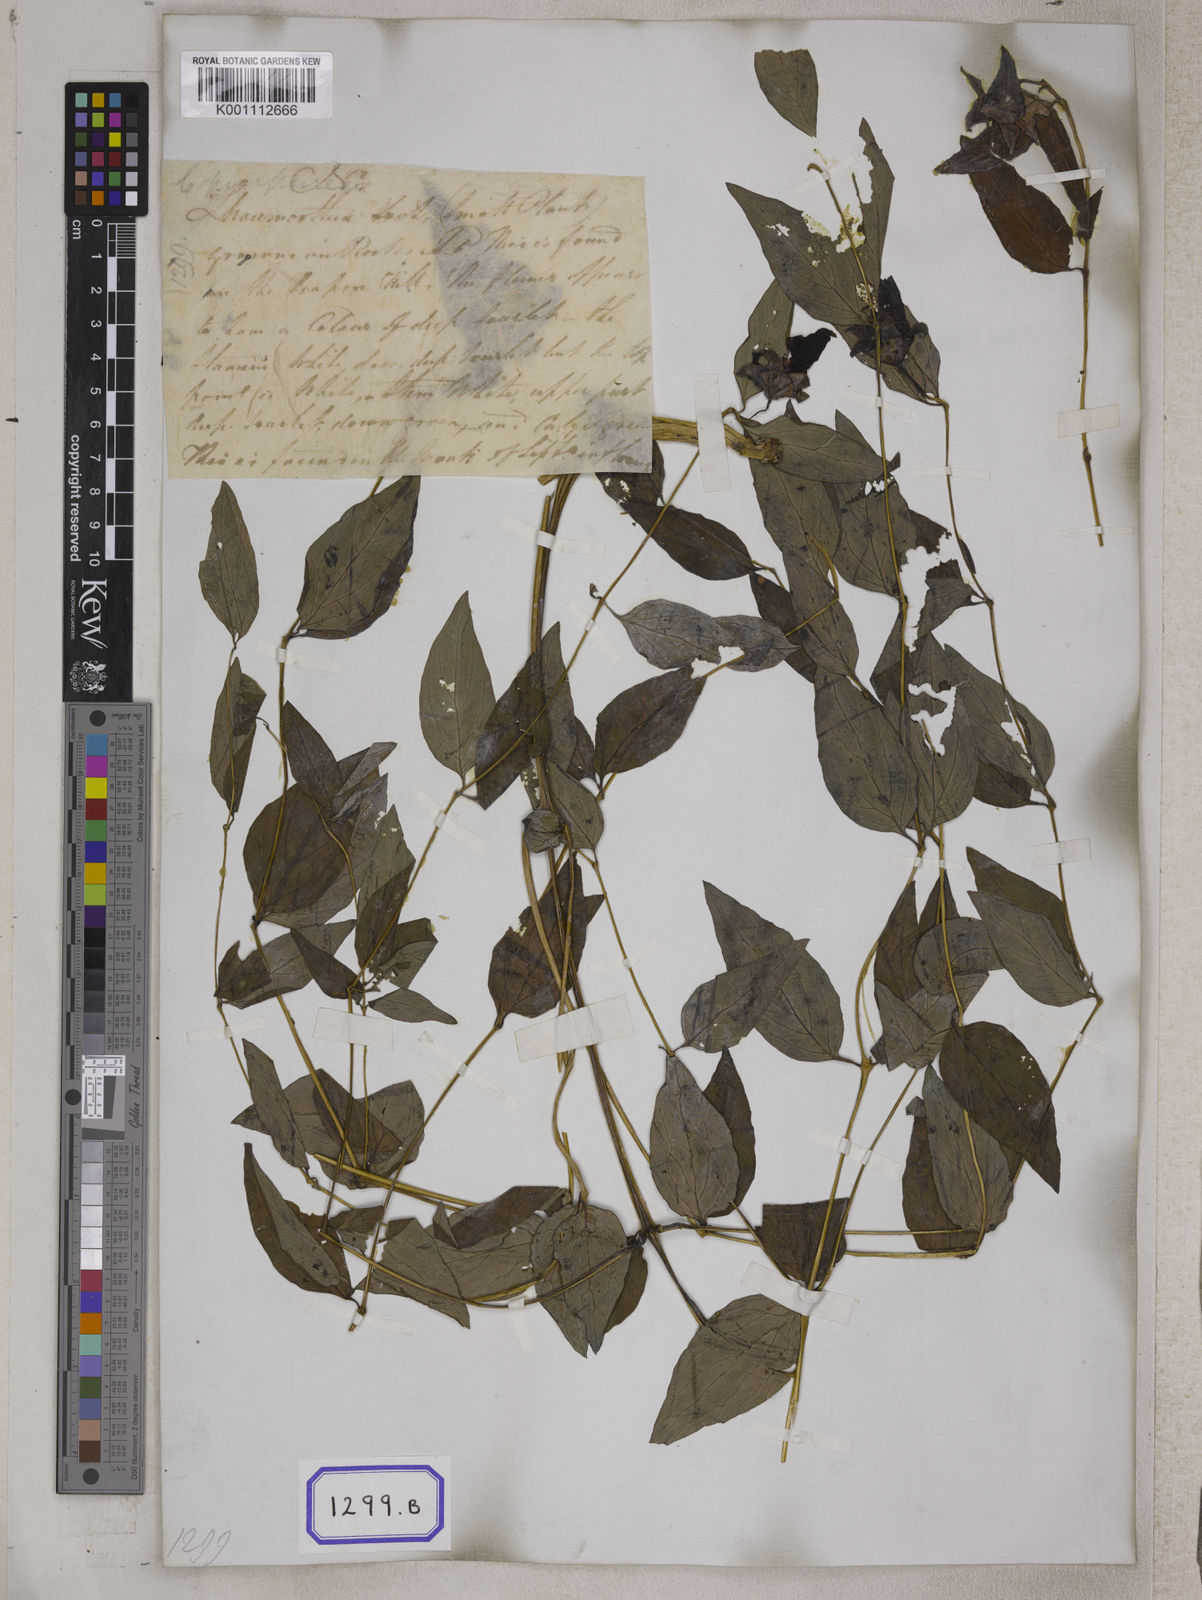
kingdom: Plantae
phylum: Tracheophyta
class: Magnoliopsida
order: Asterales
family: Campanulaceae
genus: Pankycodon
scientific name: Pankycodon purpureus
